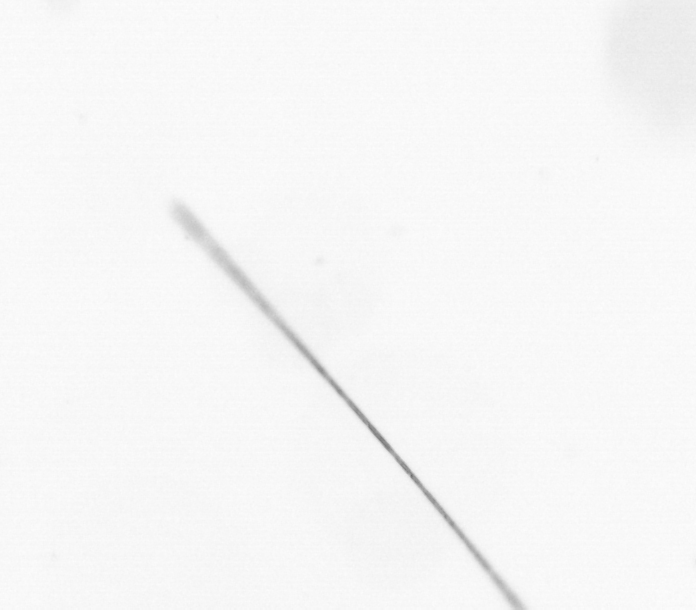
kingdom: Chromista
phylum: Ochrophyta
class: Bacillariophyceae
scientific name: Bacillariophyceae
